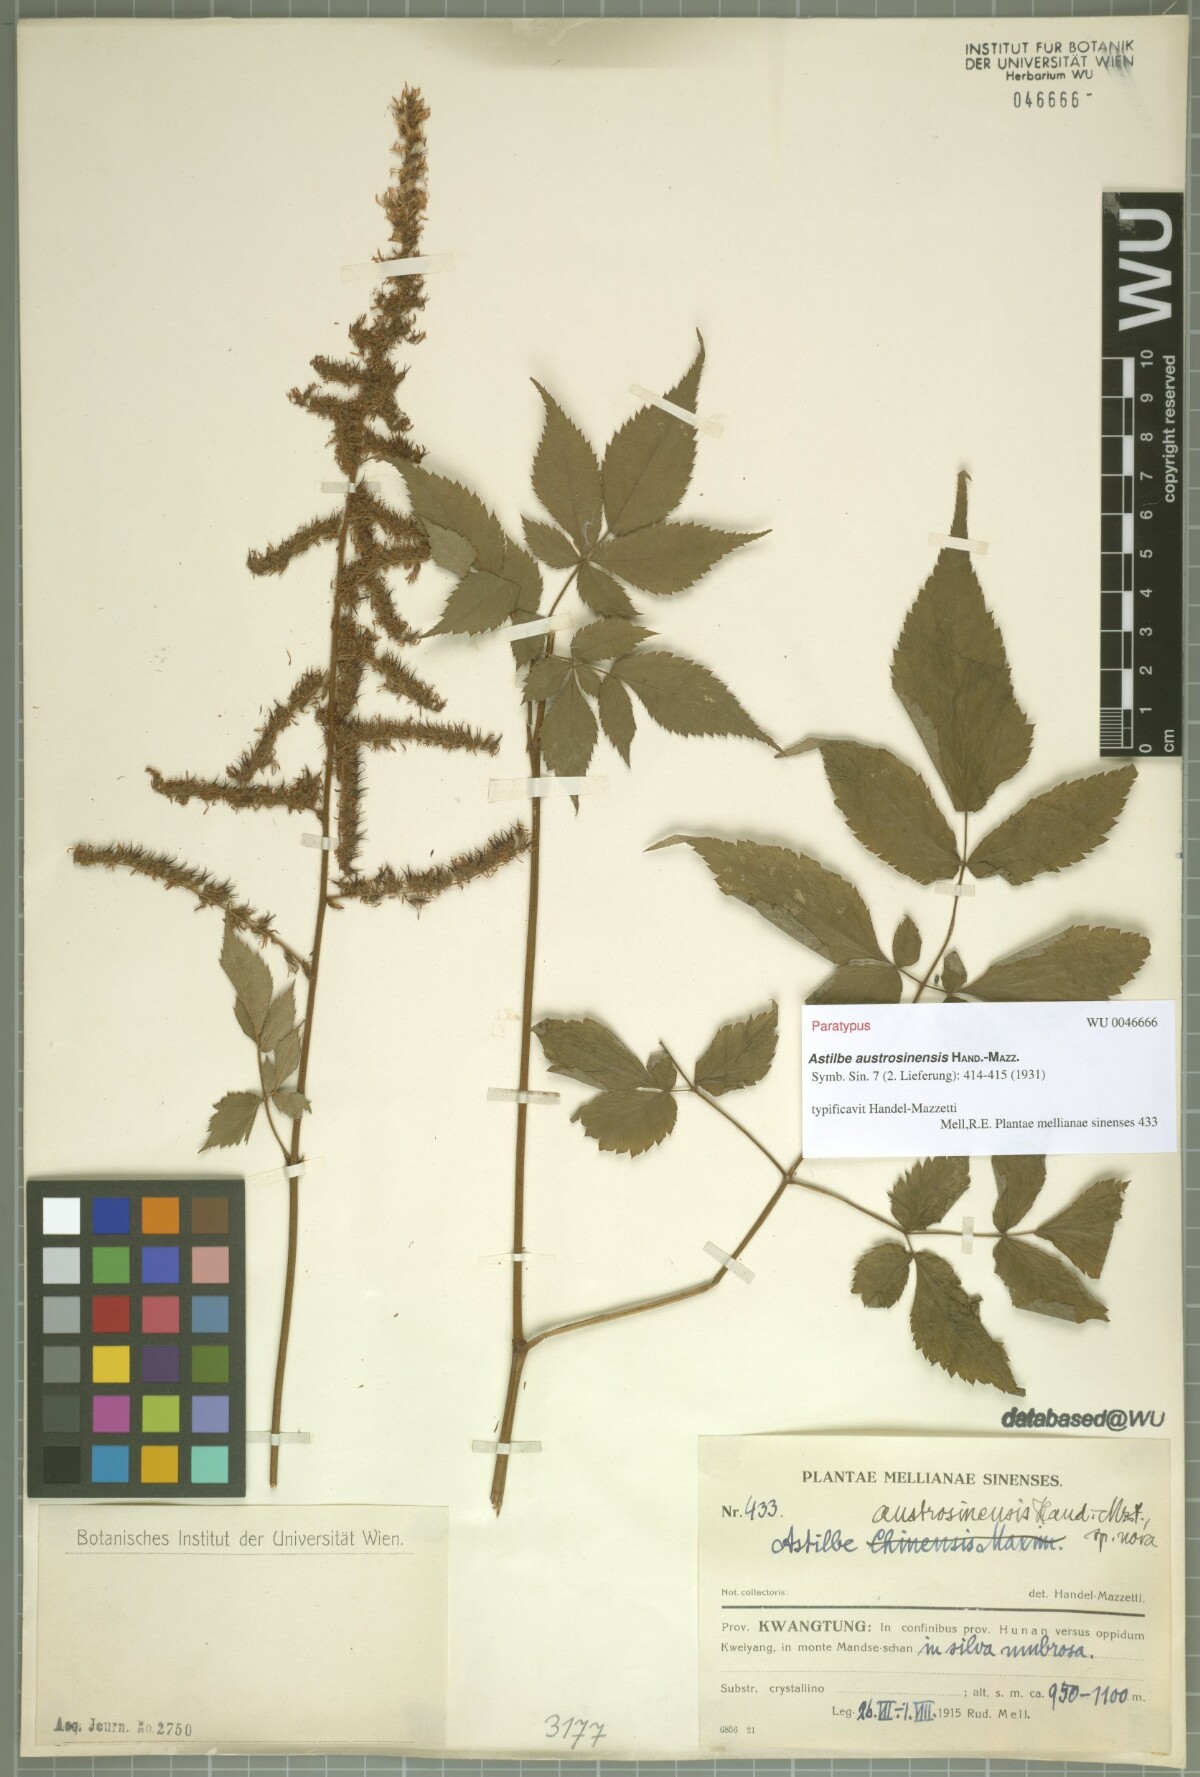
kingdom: Plantae
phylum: Tracheophyta
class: Magnoliopsida
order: Saxifragales
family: Saxifragaceae
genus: Astilbe
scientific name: Astilbe grandis
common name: Korean astilbe
